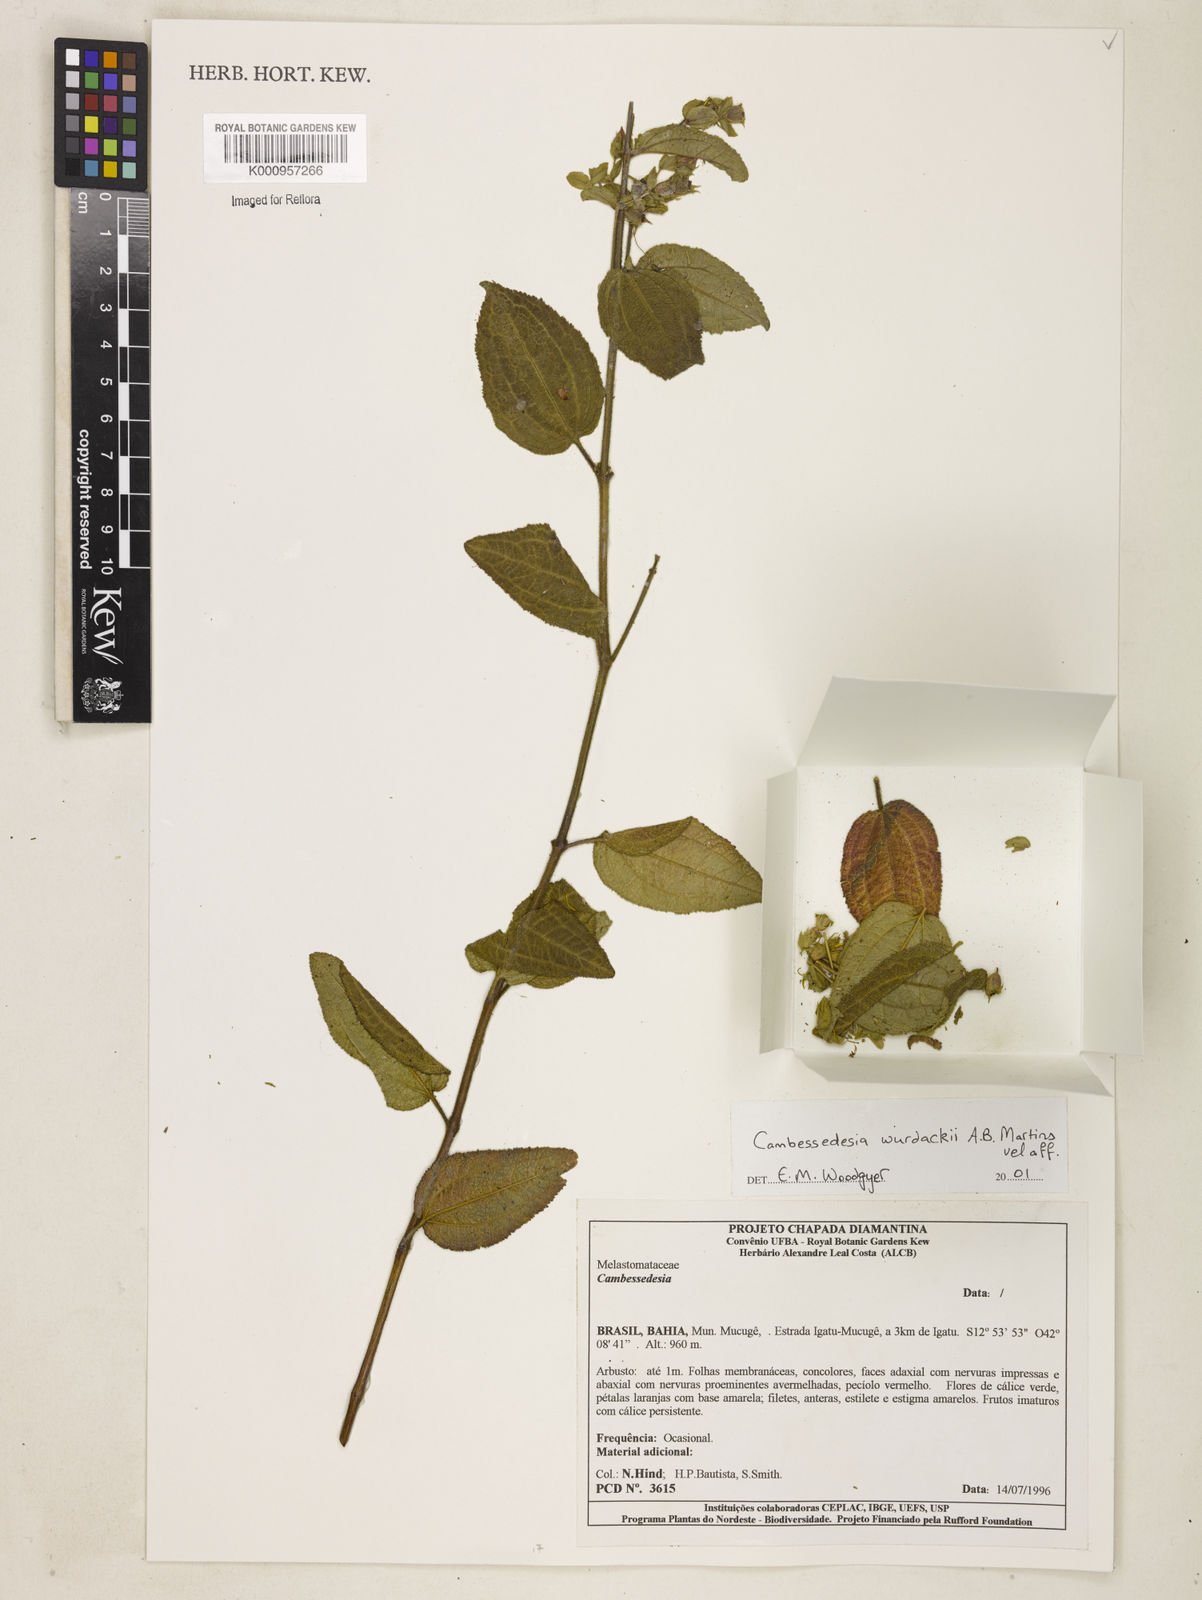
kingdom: Plantae
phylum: Tracheophyta
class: Magnoliopsida
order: Myrtales
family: Melastomataceae
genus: Cambessedesia
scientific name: Cambessedesia wurdackii
